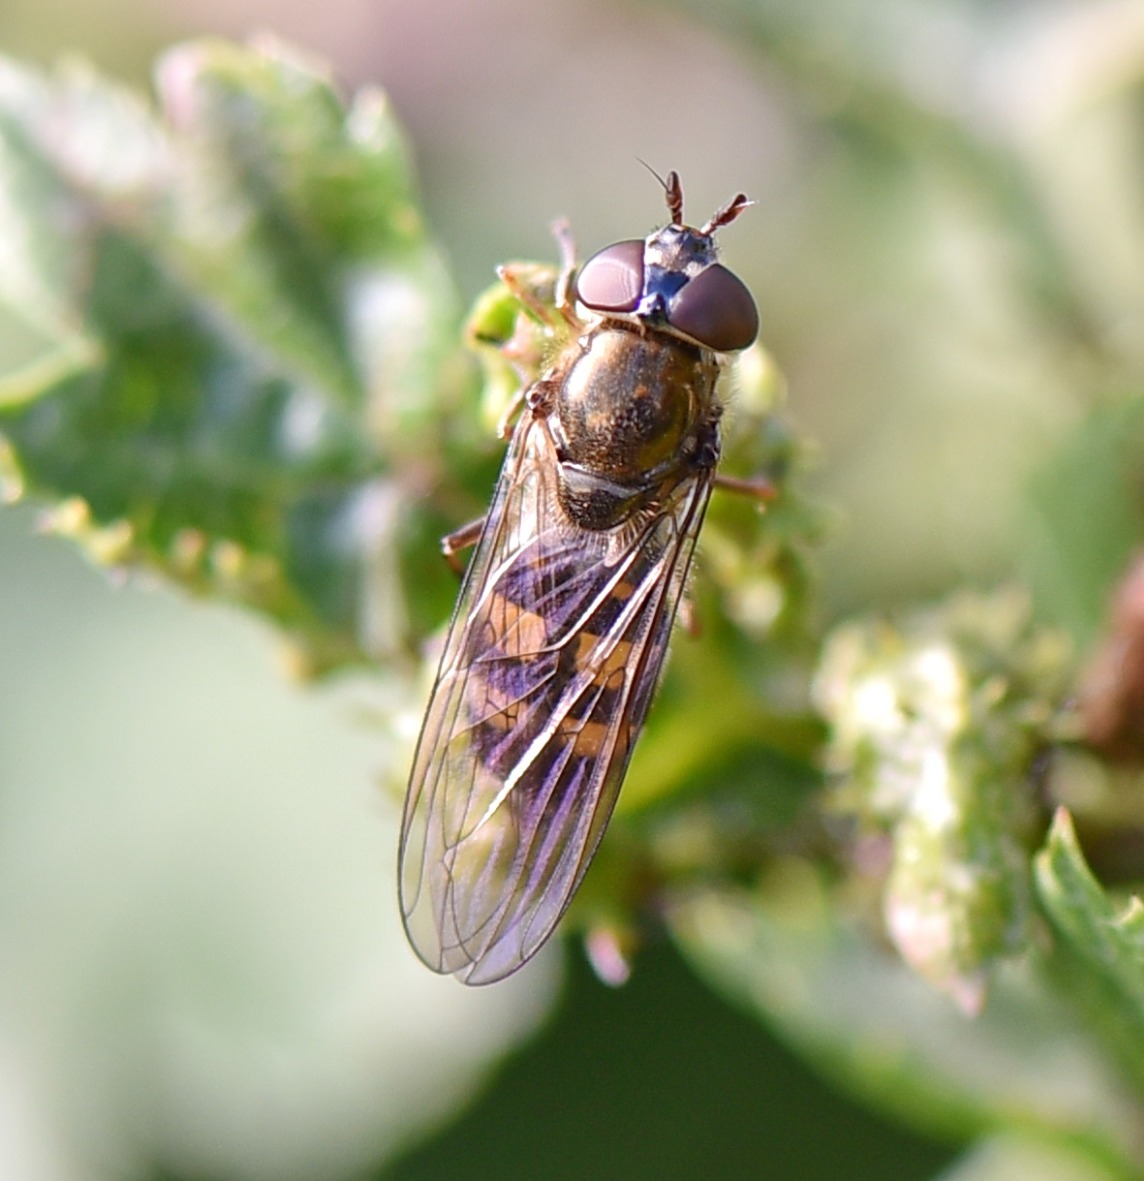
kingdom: Animalia
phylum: Arthropoda
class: Insecta
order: Diptera
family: Syrphidae
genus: Xanthandrus
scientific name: Xanthandrus comtus
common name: Gulhannet svirreflue
